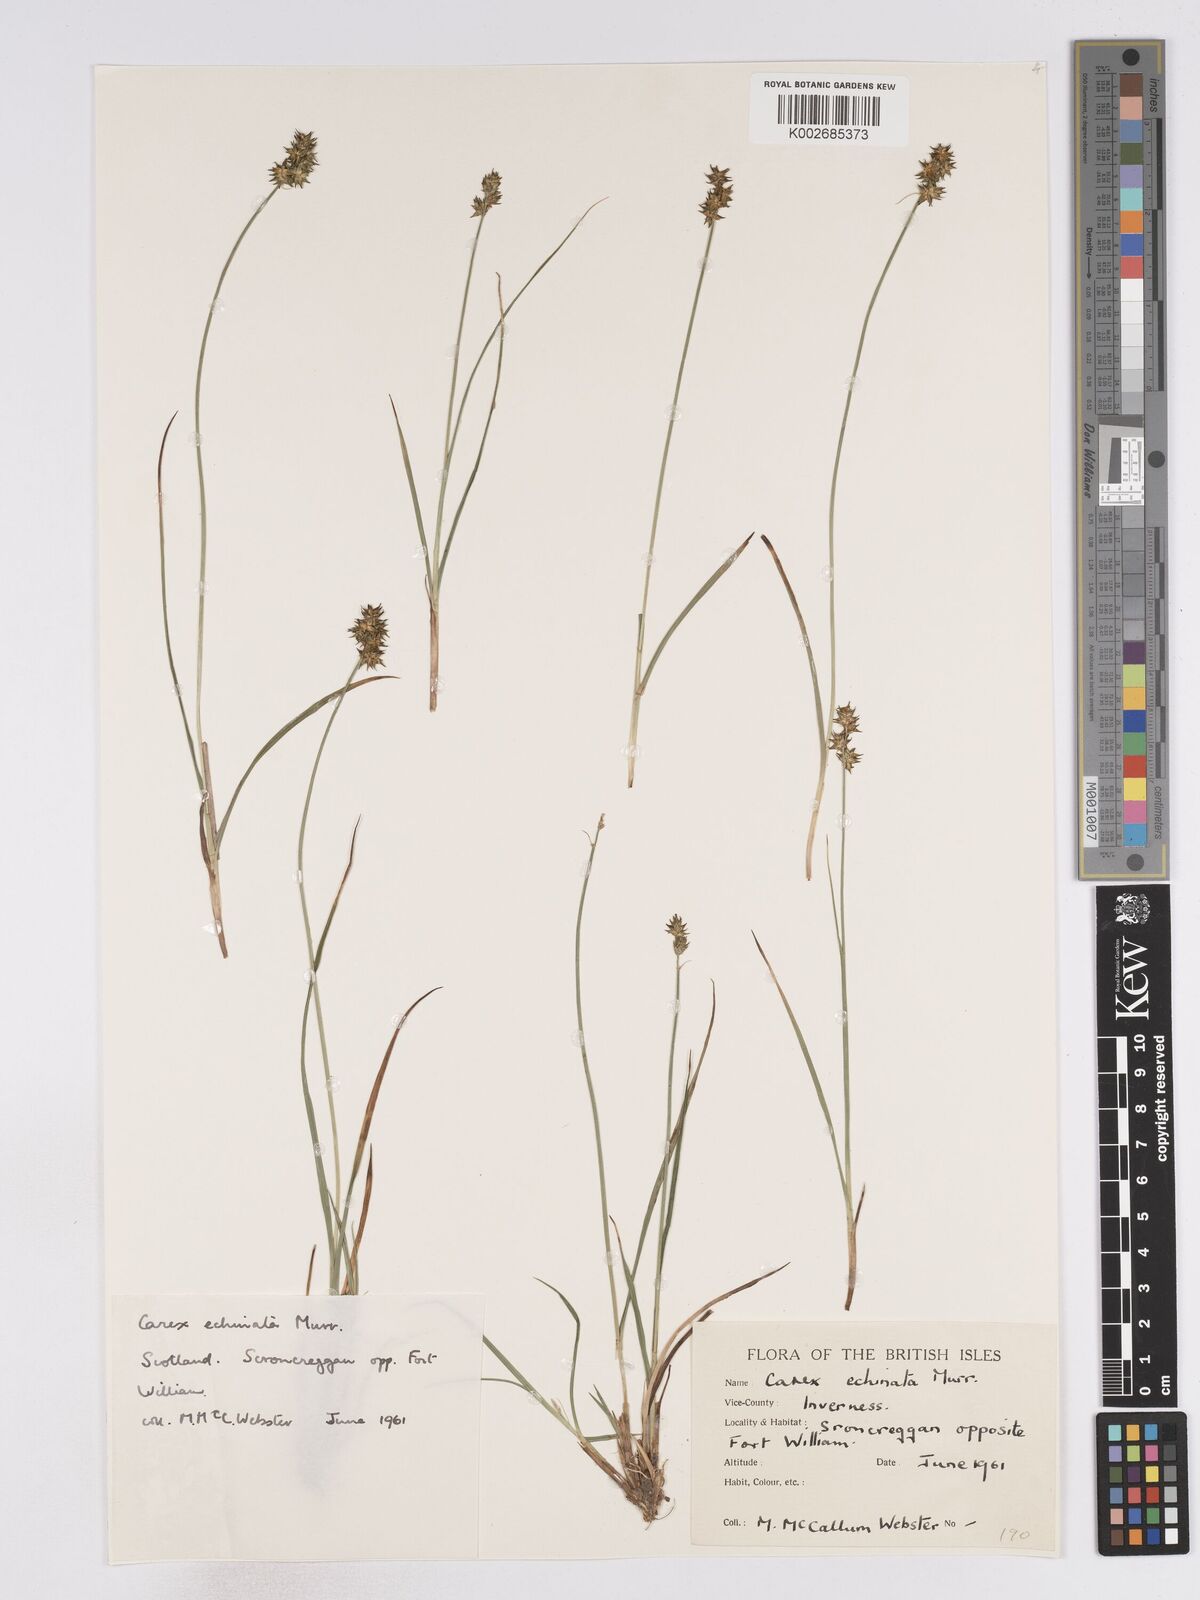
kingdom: Plantae
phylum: Tracheophyta
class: Liliopsida
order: Poales
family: Cyperaceae
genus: Carex
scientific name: Carex echinata
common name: Star sedge
